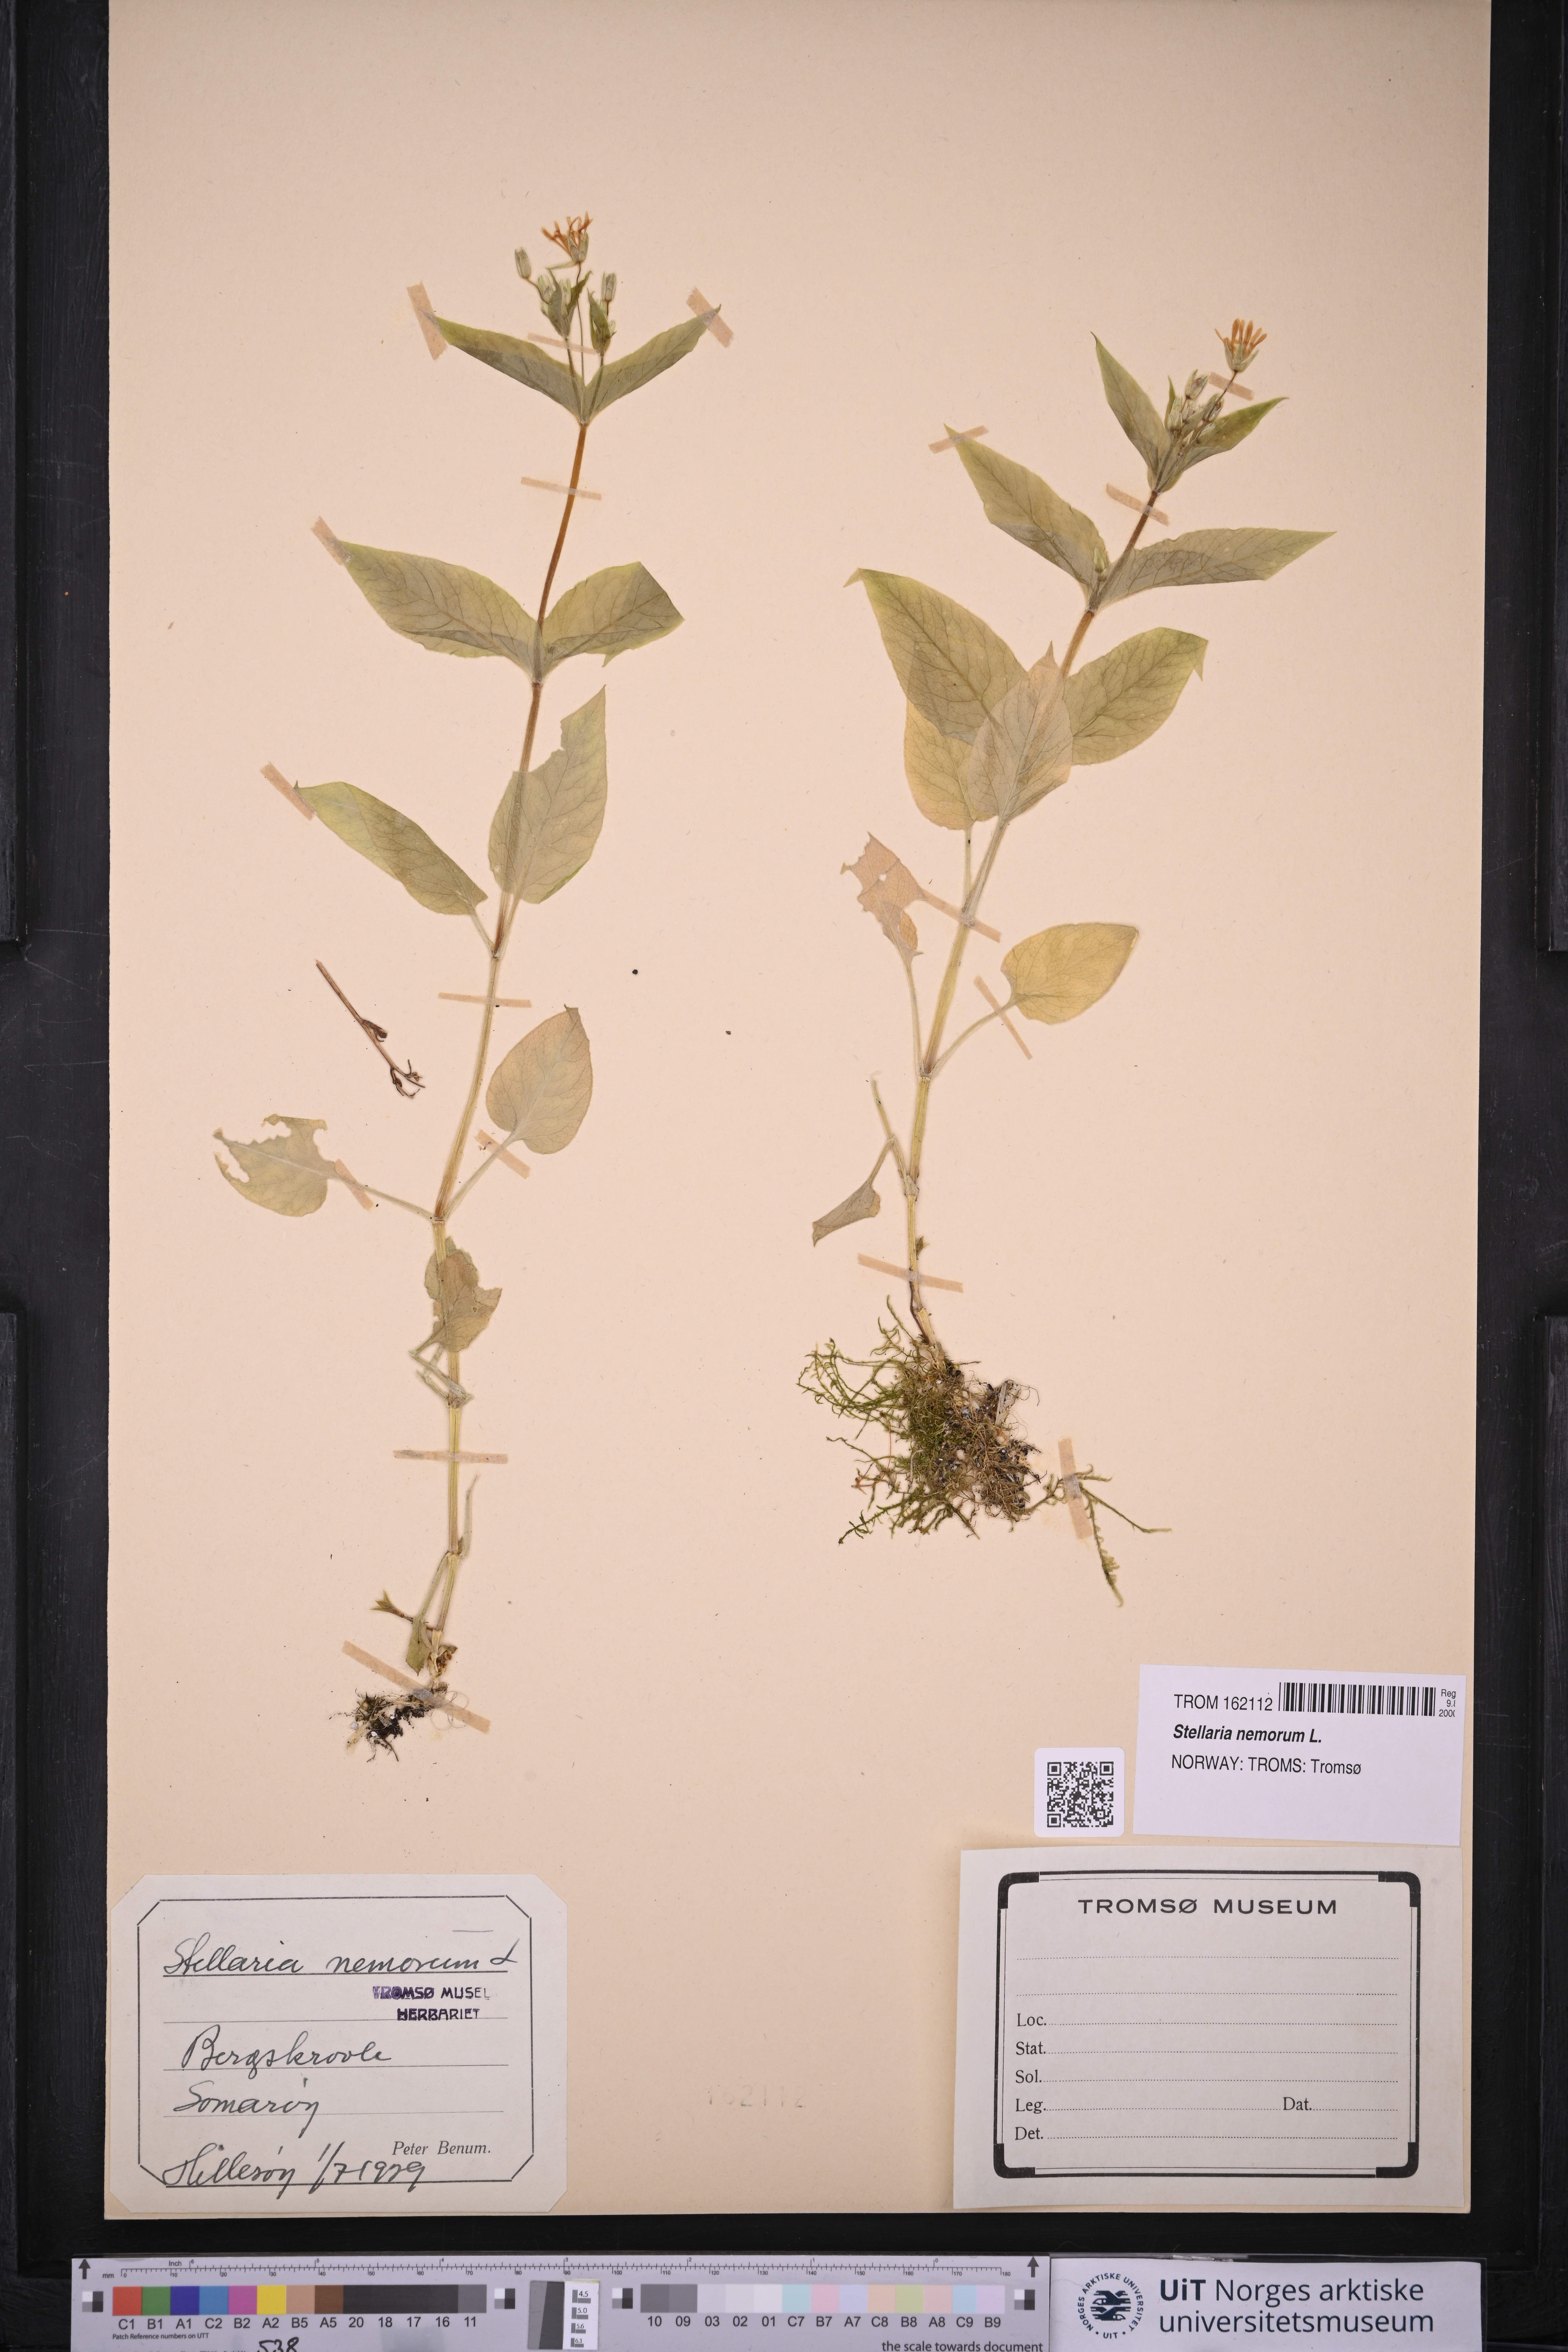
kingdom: Plantae
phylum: Tracheophyta
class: Magnoliopsida
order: Caryophyllales
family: Caryophyllaceae
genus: Stellaria
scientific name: Stellaria nemorum
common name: Wood stitchwort
